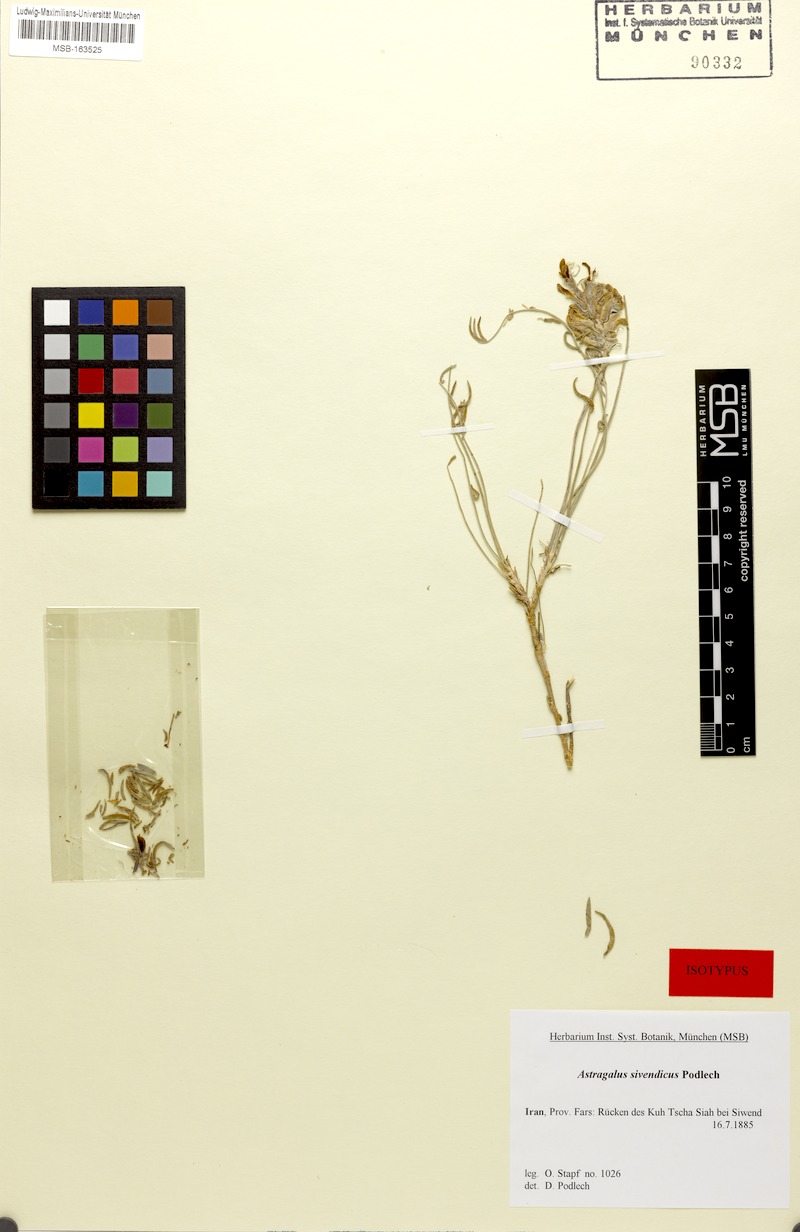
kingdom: Plantae
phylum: Tracheophyta
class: Magnoliopsida
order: Fabales
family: Fabaceae
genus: Astragalus
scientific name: Astragalus sivendicus
